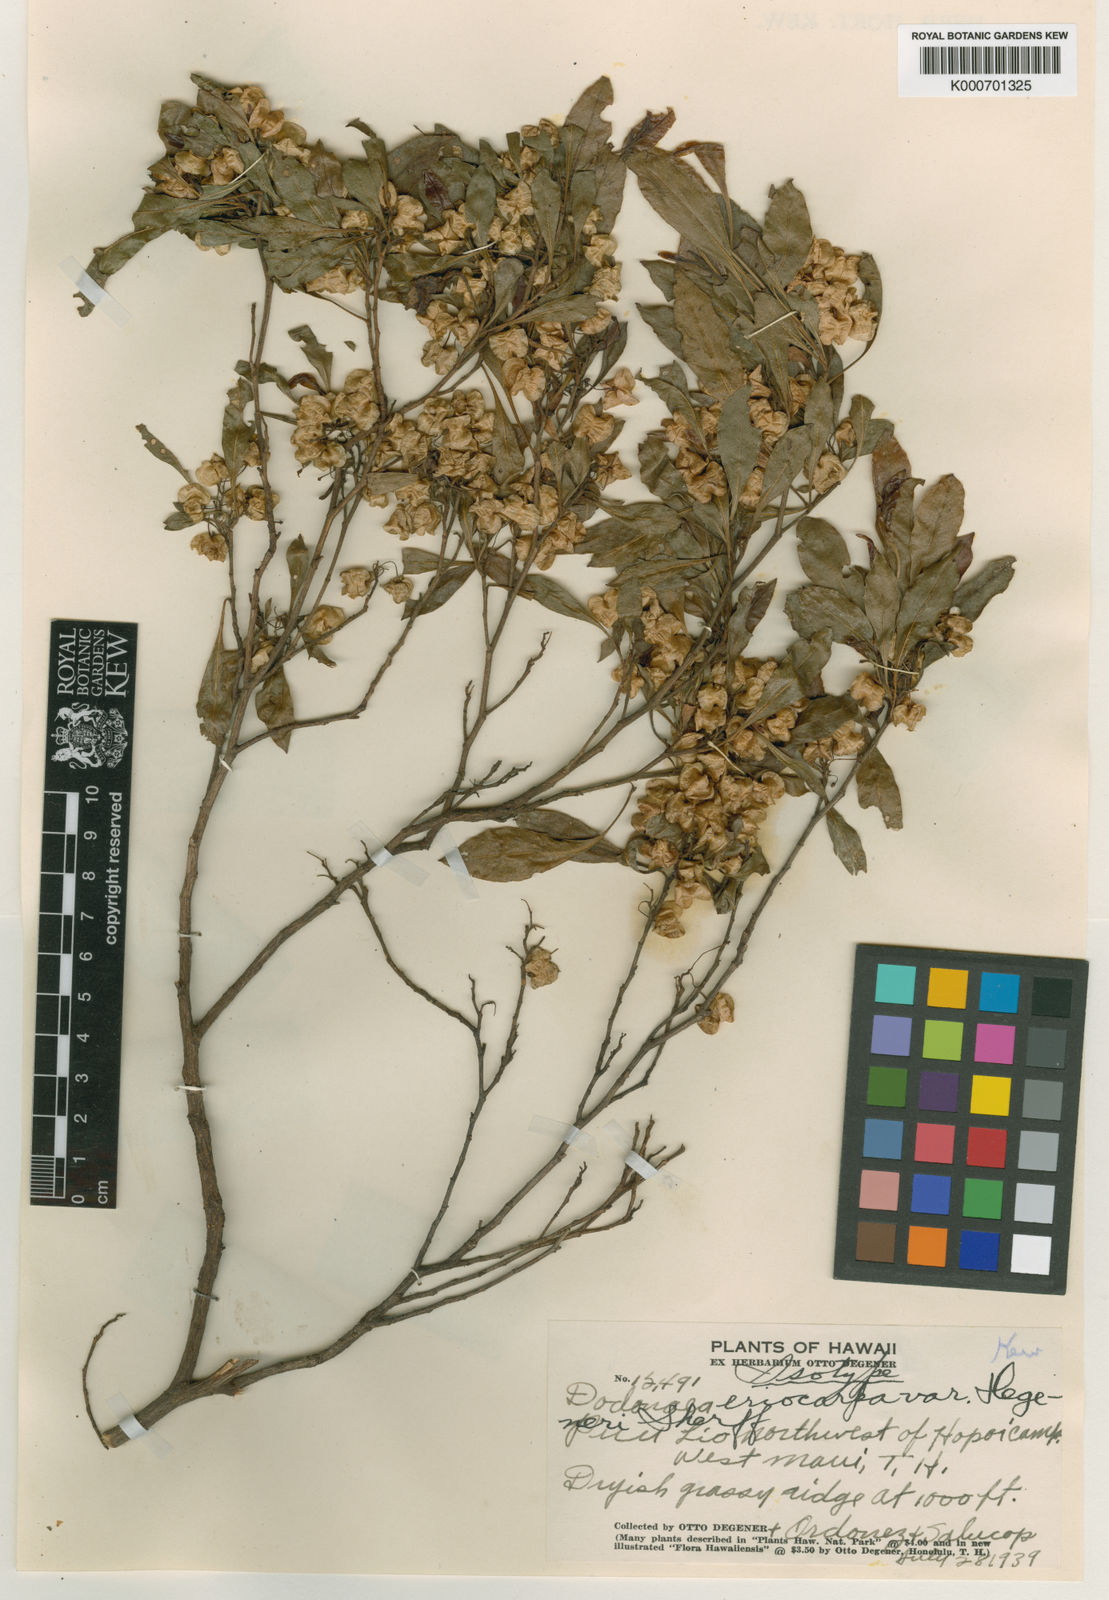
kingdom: Plantae
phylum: Tracheophyta
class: Magnoliopsida
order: Sapindales
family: Sapindaceae
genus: Dodonaea
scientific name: Dodonaea viscosa
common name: Hopbush
